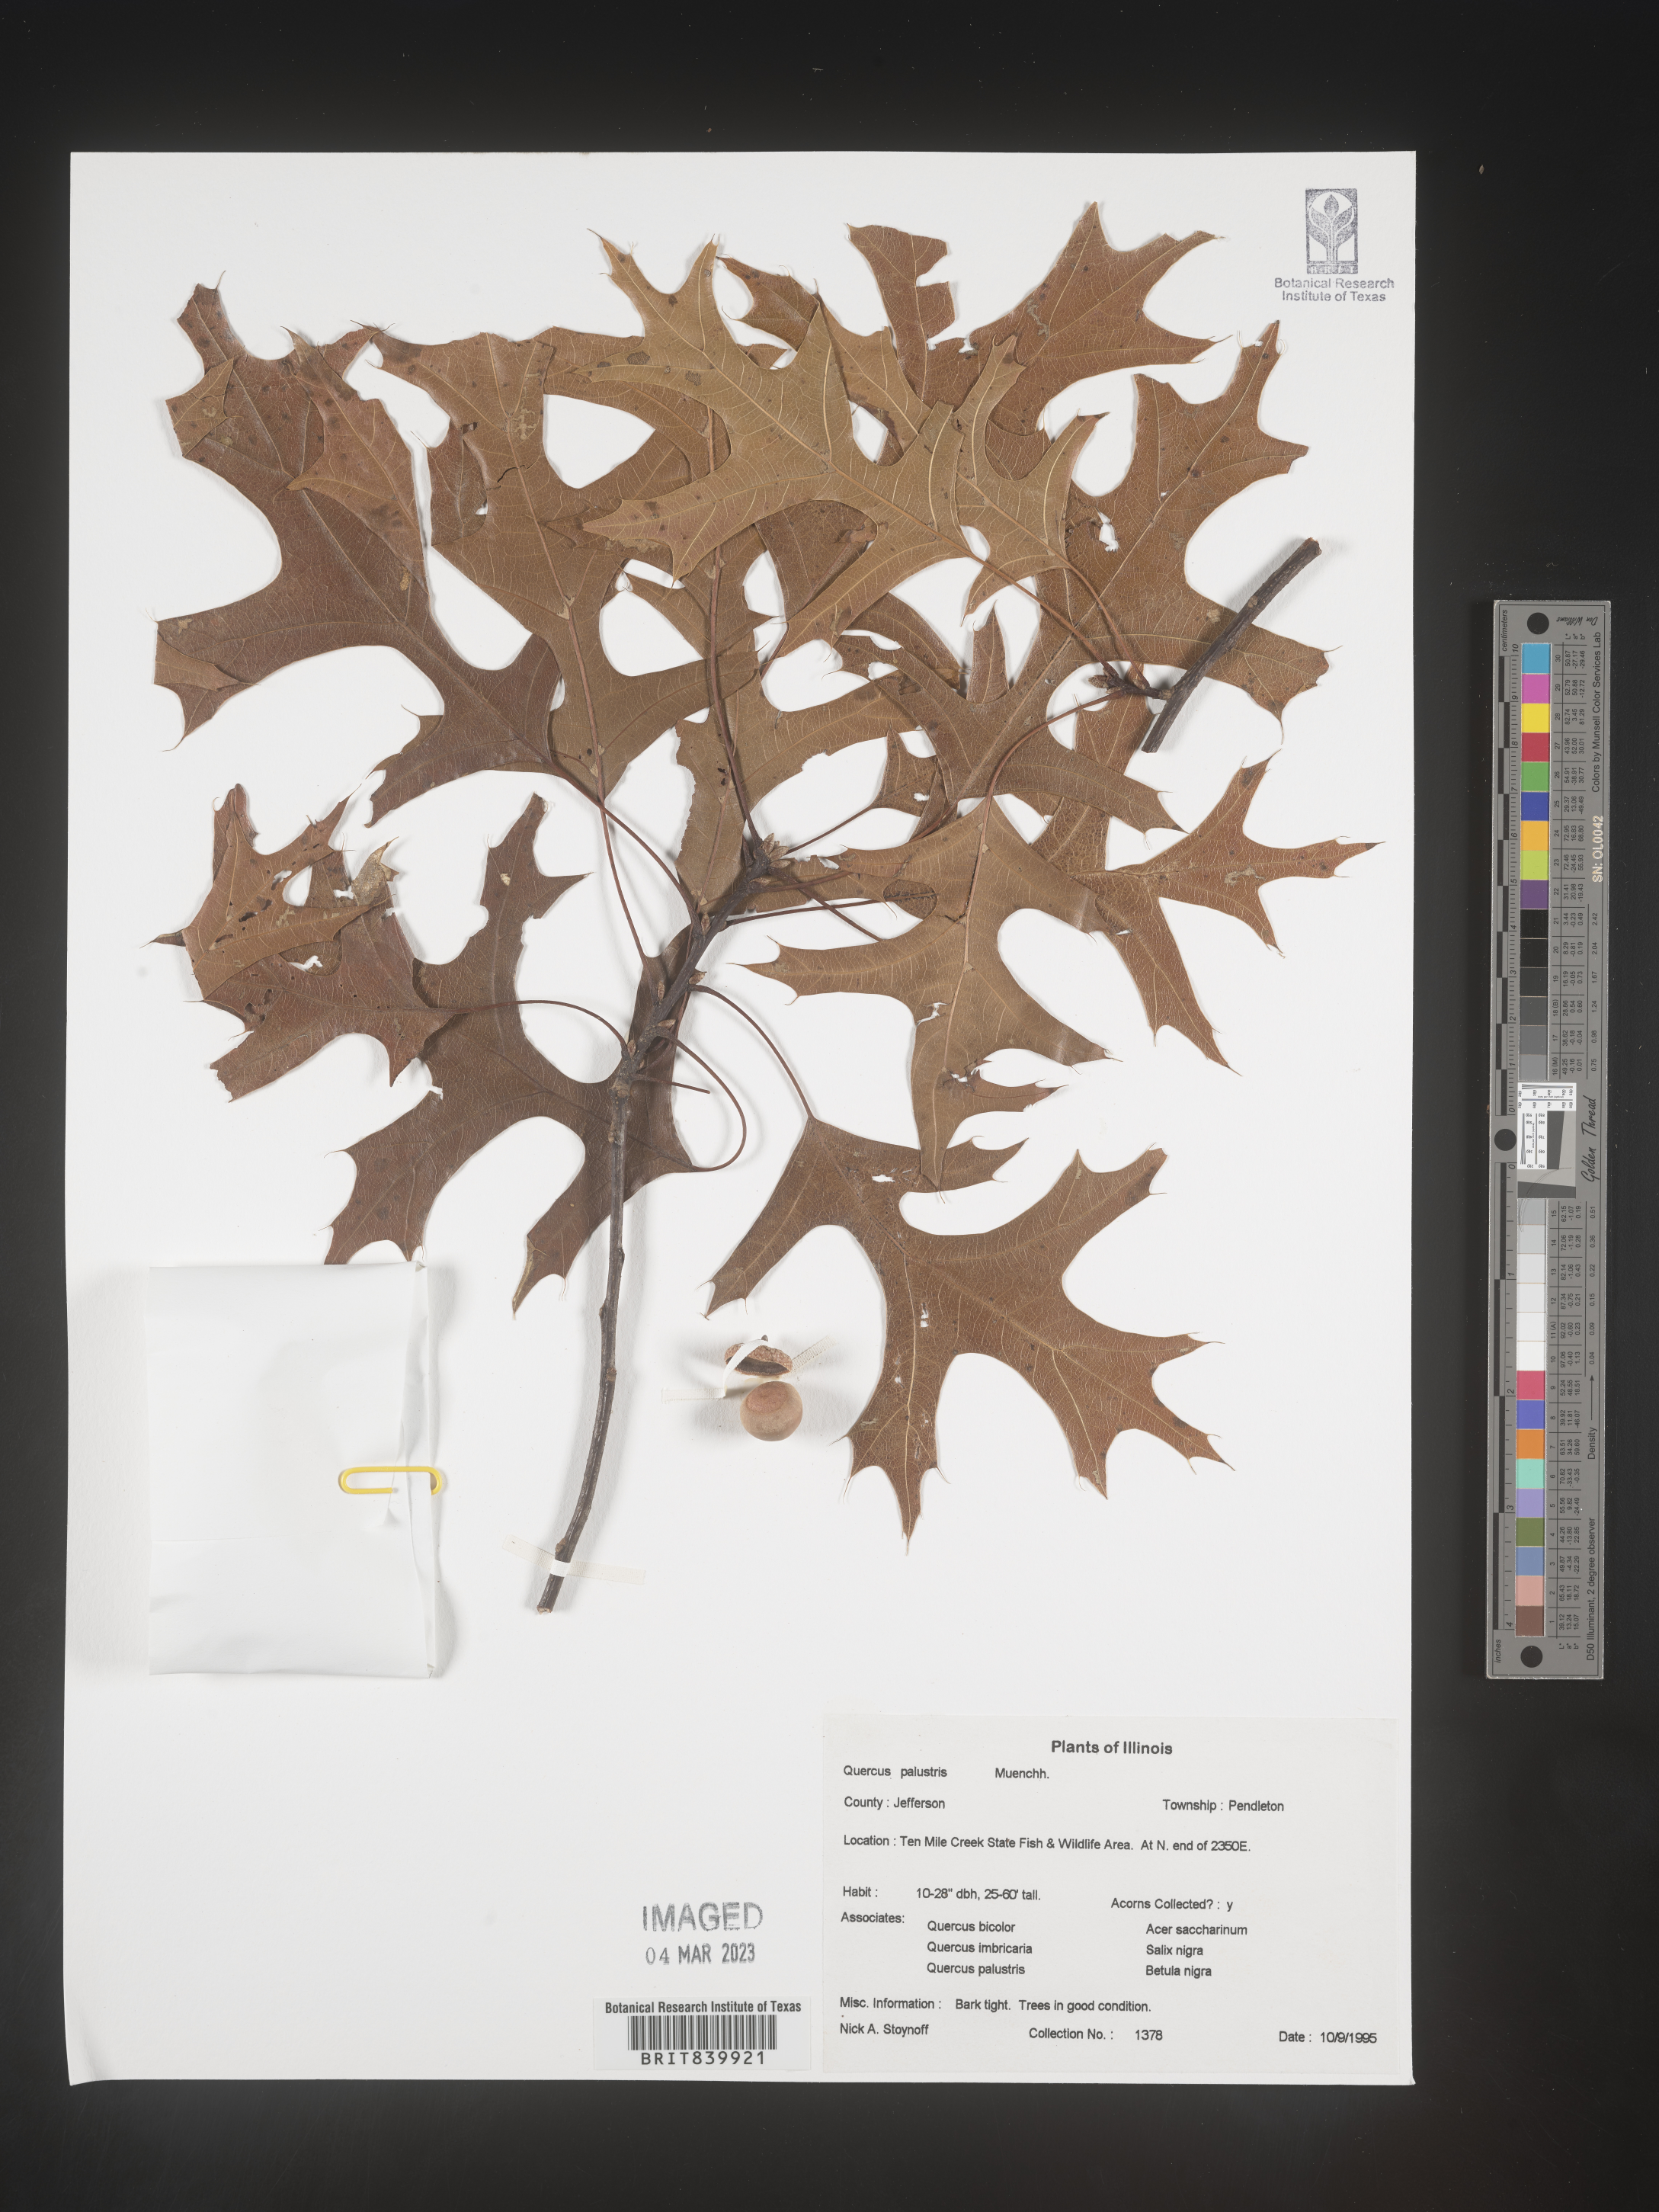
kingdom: Plantae
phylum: Tracheophyta
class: Magnoliopsida
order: Fagales
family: Fagaceae
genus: Quercus
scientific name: Quercus palustris
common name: Pin oak
